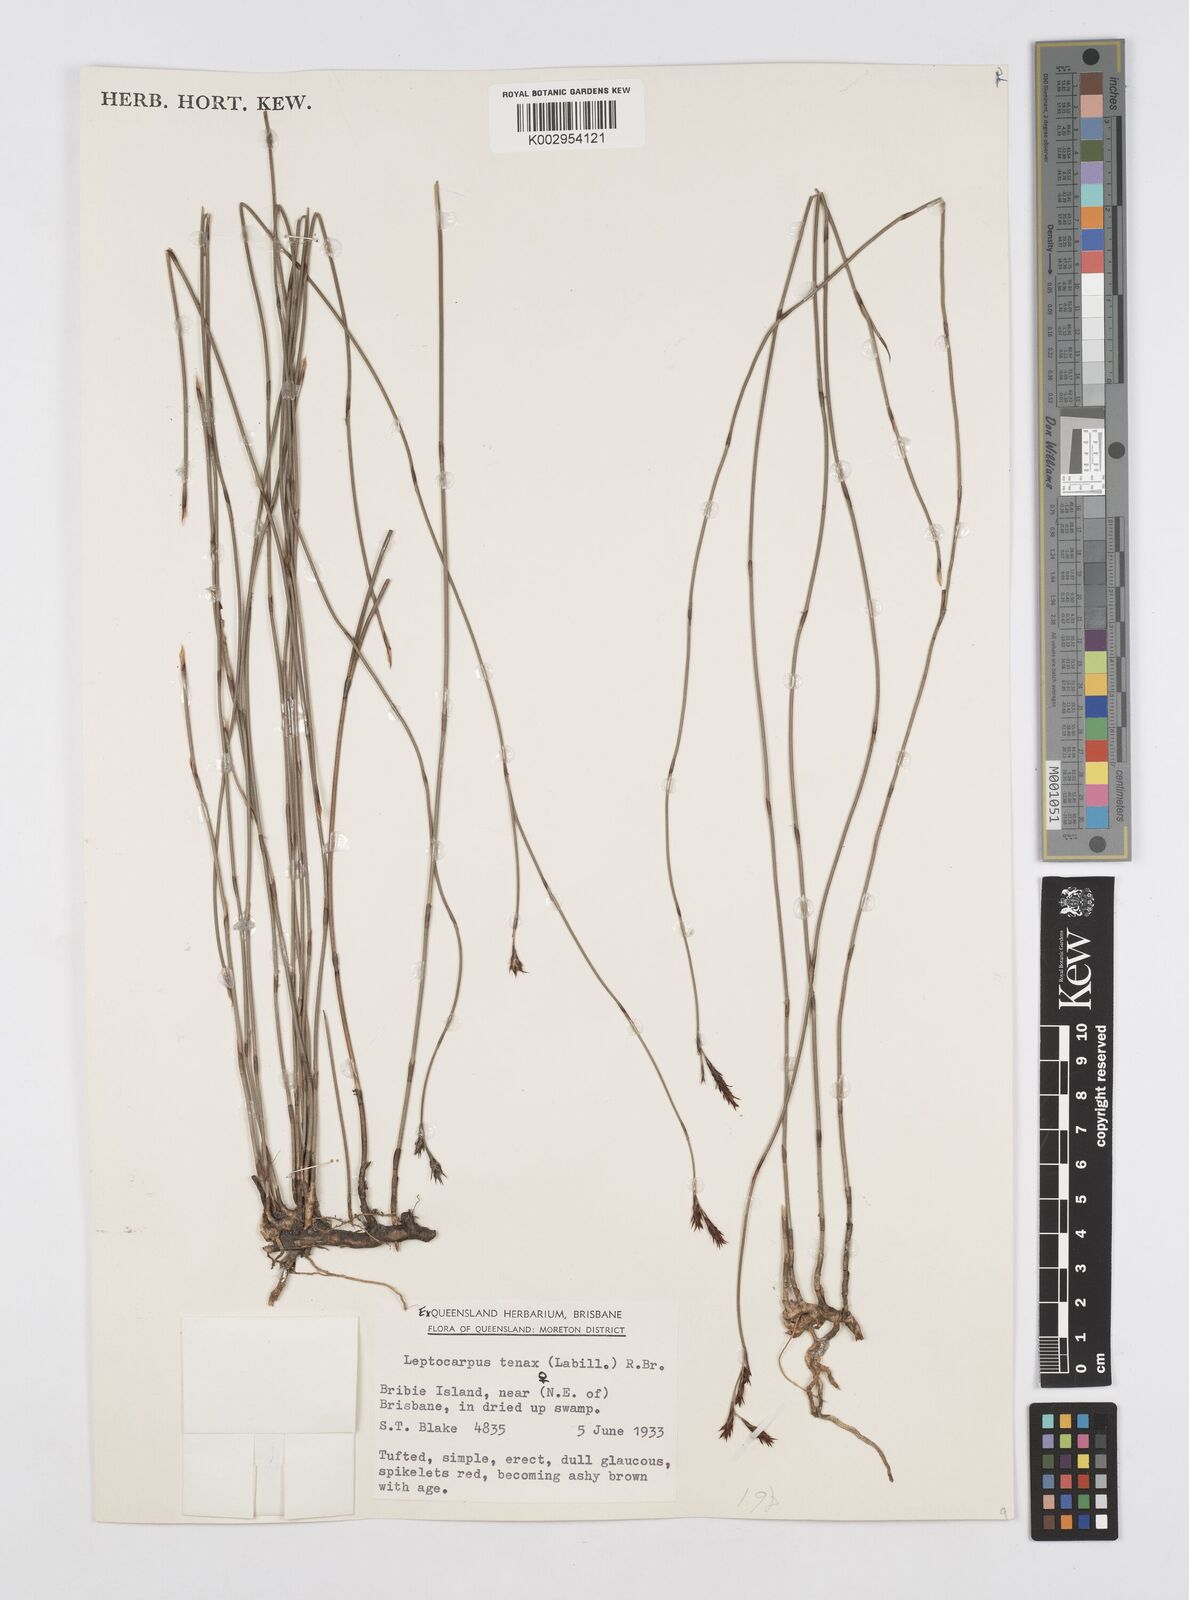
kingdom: Plantae
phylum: Tracheophyta
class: Liliopsida
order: Poales
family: Restionaceae
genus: Leptocarpus
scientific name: Leptocarpus tenax
